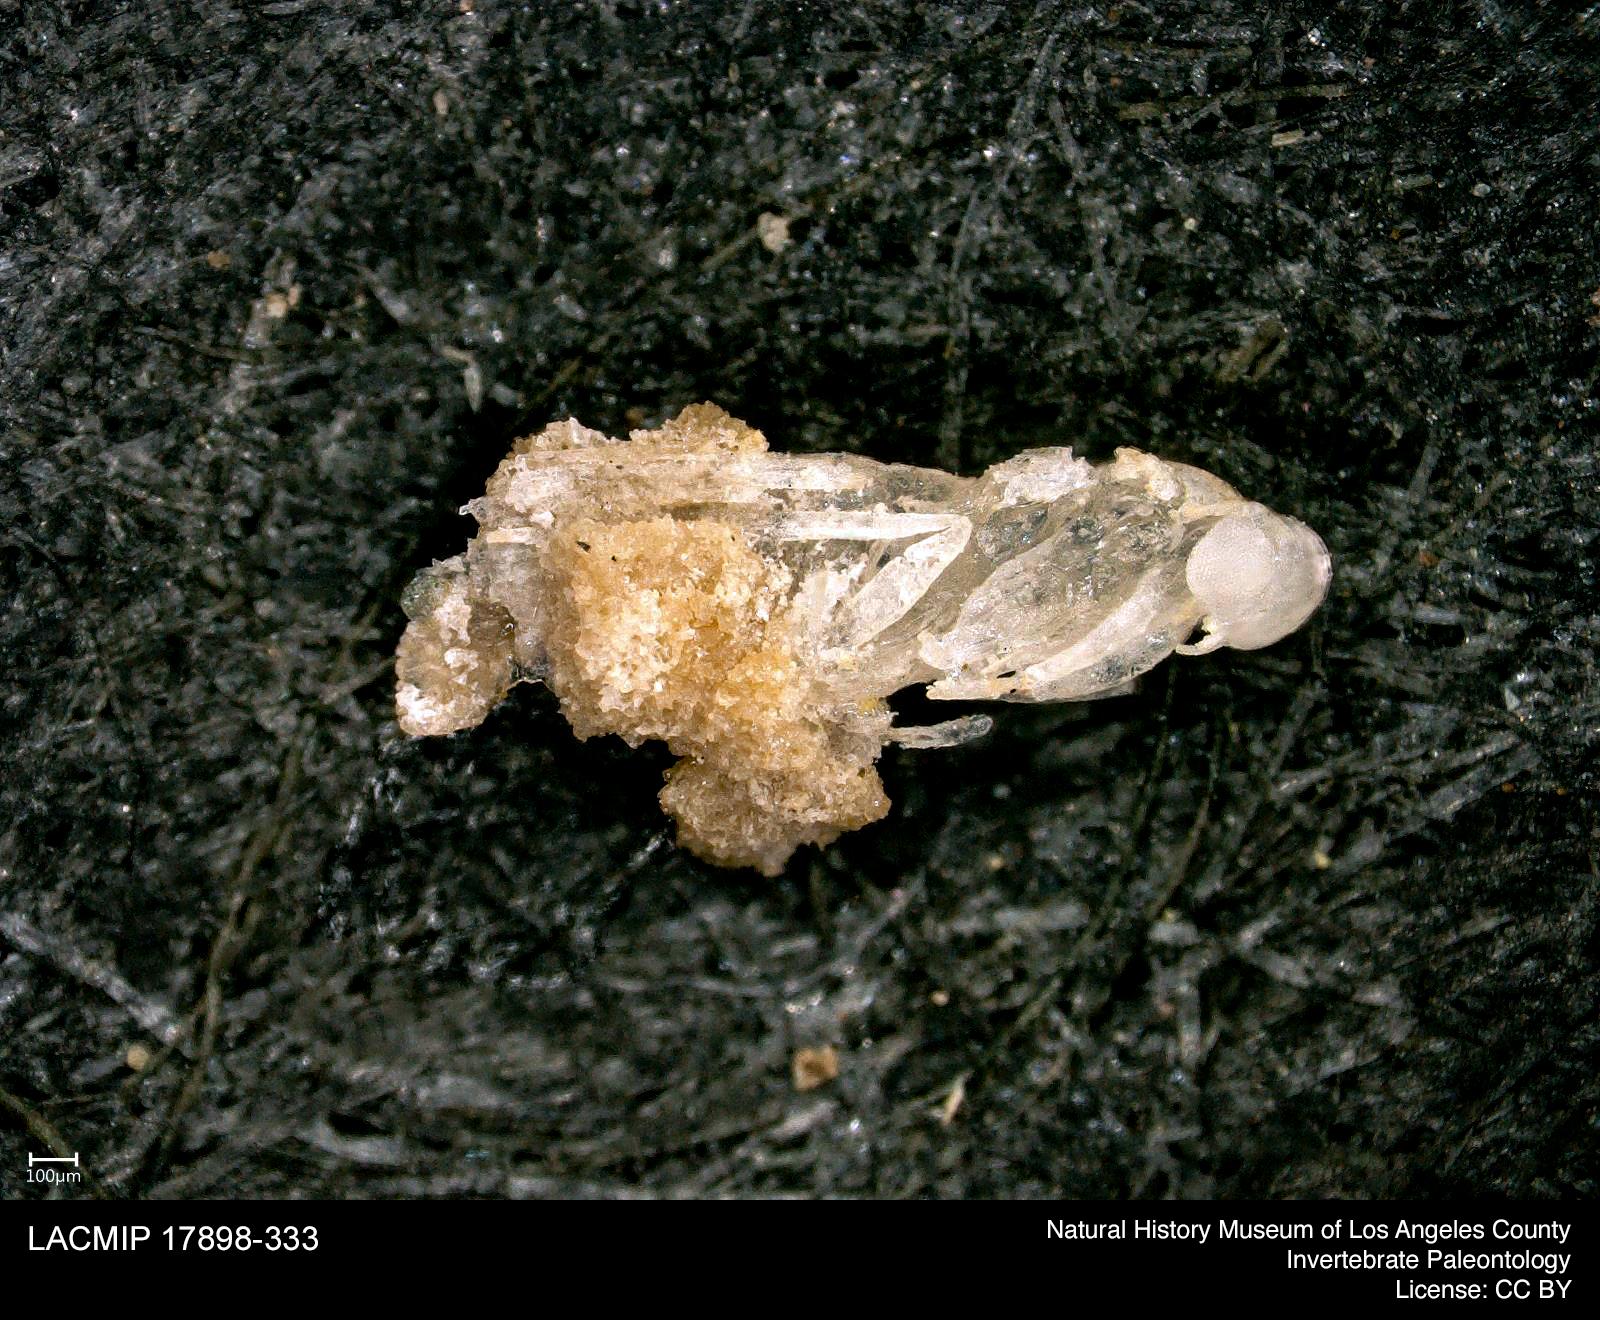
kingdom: Animalia
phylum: Arthropoda
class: Insecta
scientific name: Insecta
